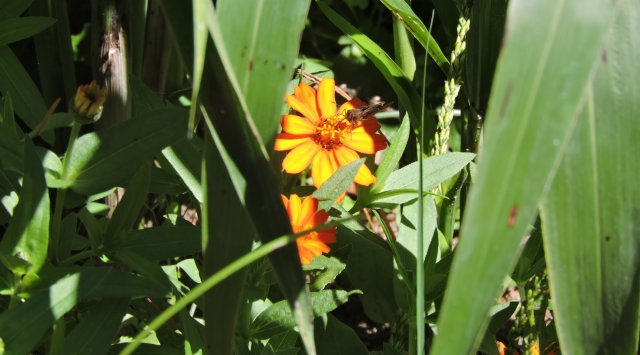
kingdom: Animalia
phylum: Arthropoda
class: Insecta
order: Lepidoptera
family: Hesperiidae
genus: Lerema
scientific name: Lerema accius
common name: Clouded Skipper
